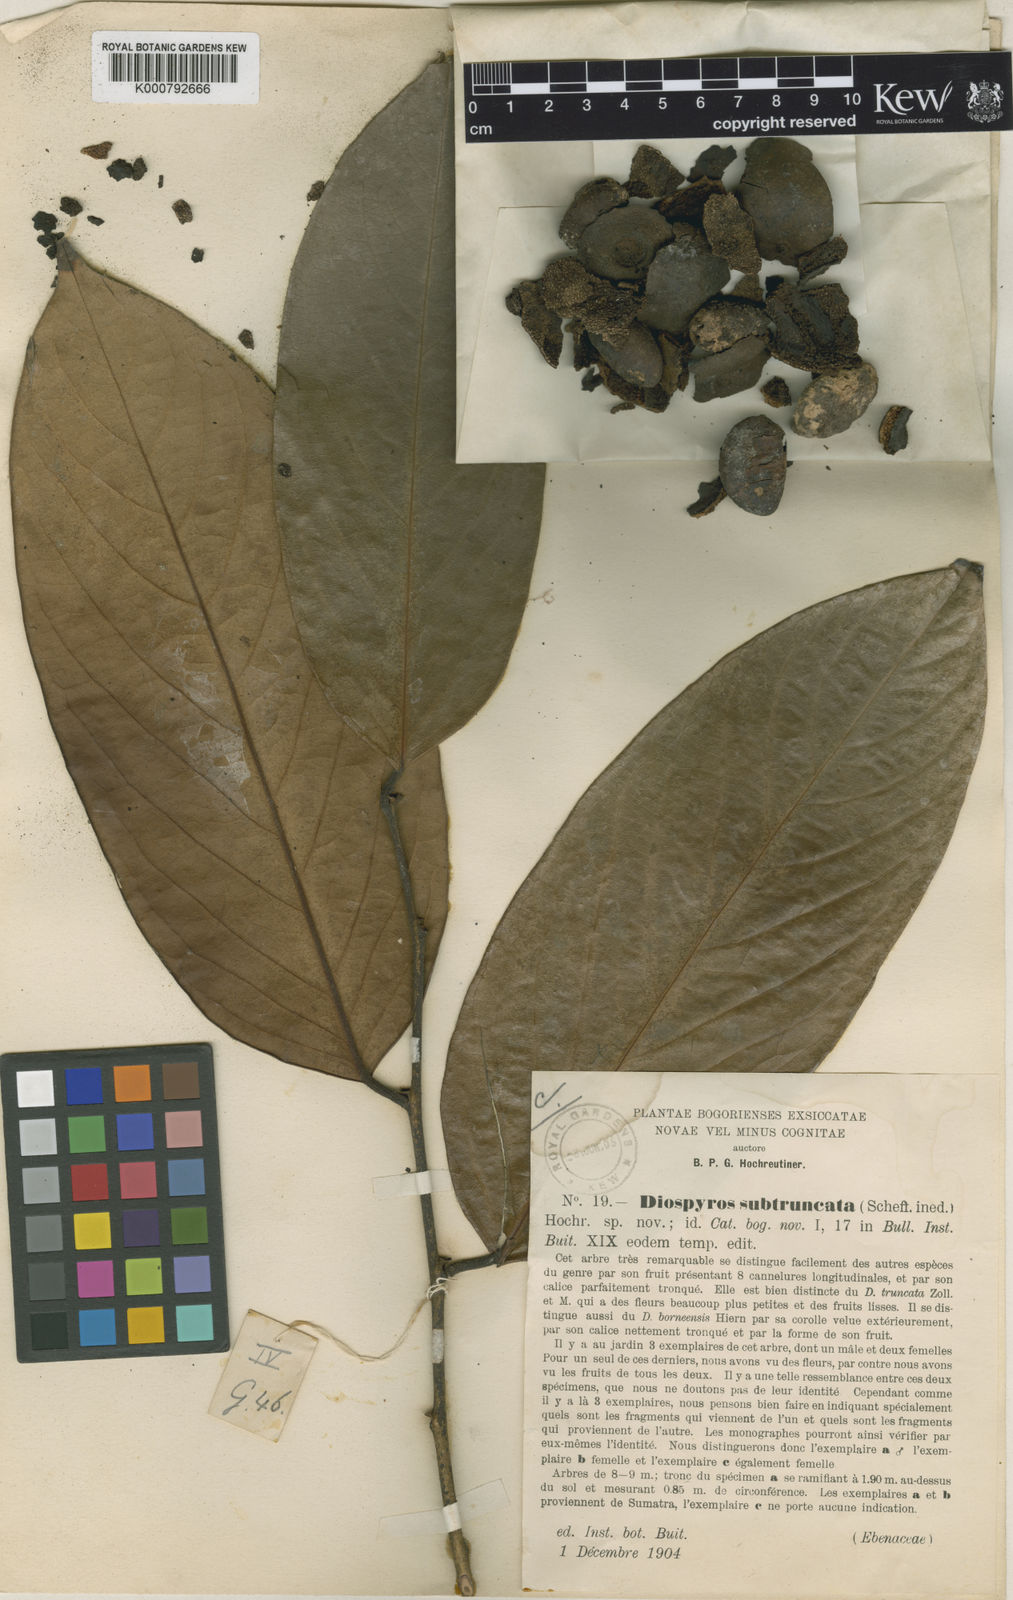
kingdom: Plantae
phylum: Tracheophyta
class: Magnoliopsida
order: Ericales
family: Ebenaceae
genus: Diospyros
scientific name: Diospyros subtruncata
